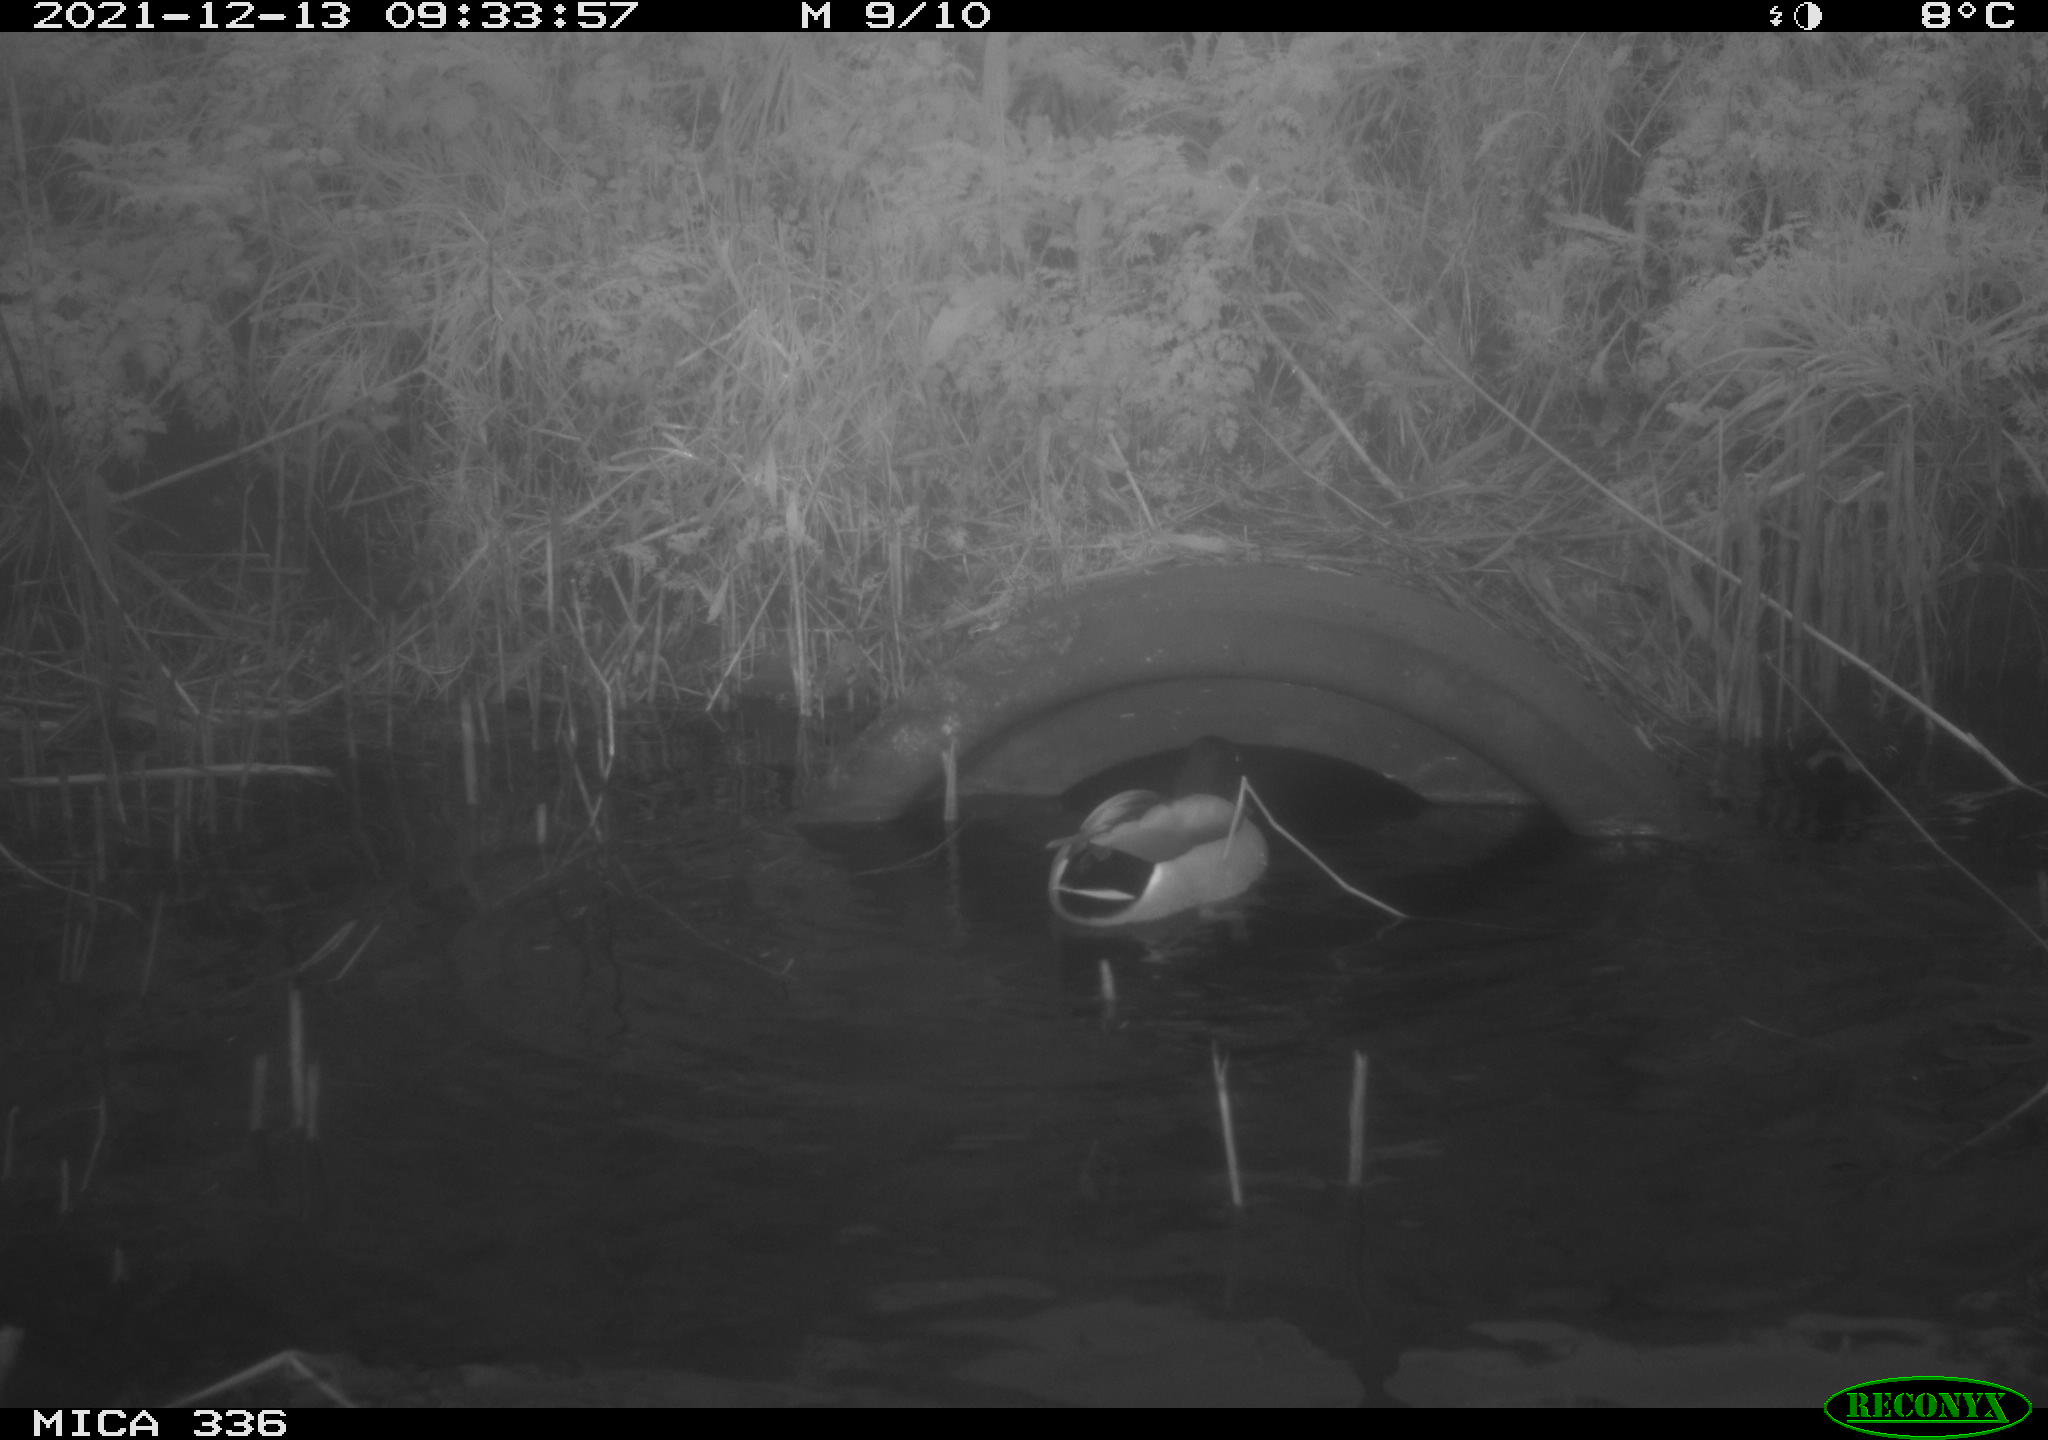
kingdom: Animalia
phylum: Chordata
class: Aves
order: Anseriformes
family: Anatidae
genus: Anas
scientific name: Anas platyrhynchos
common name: Mallard
